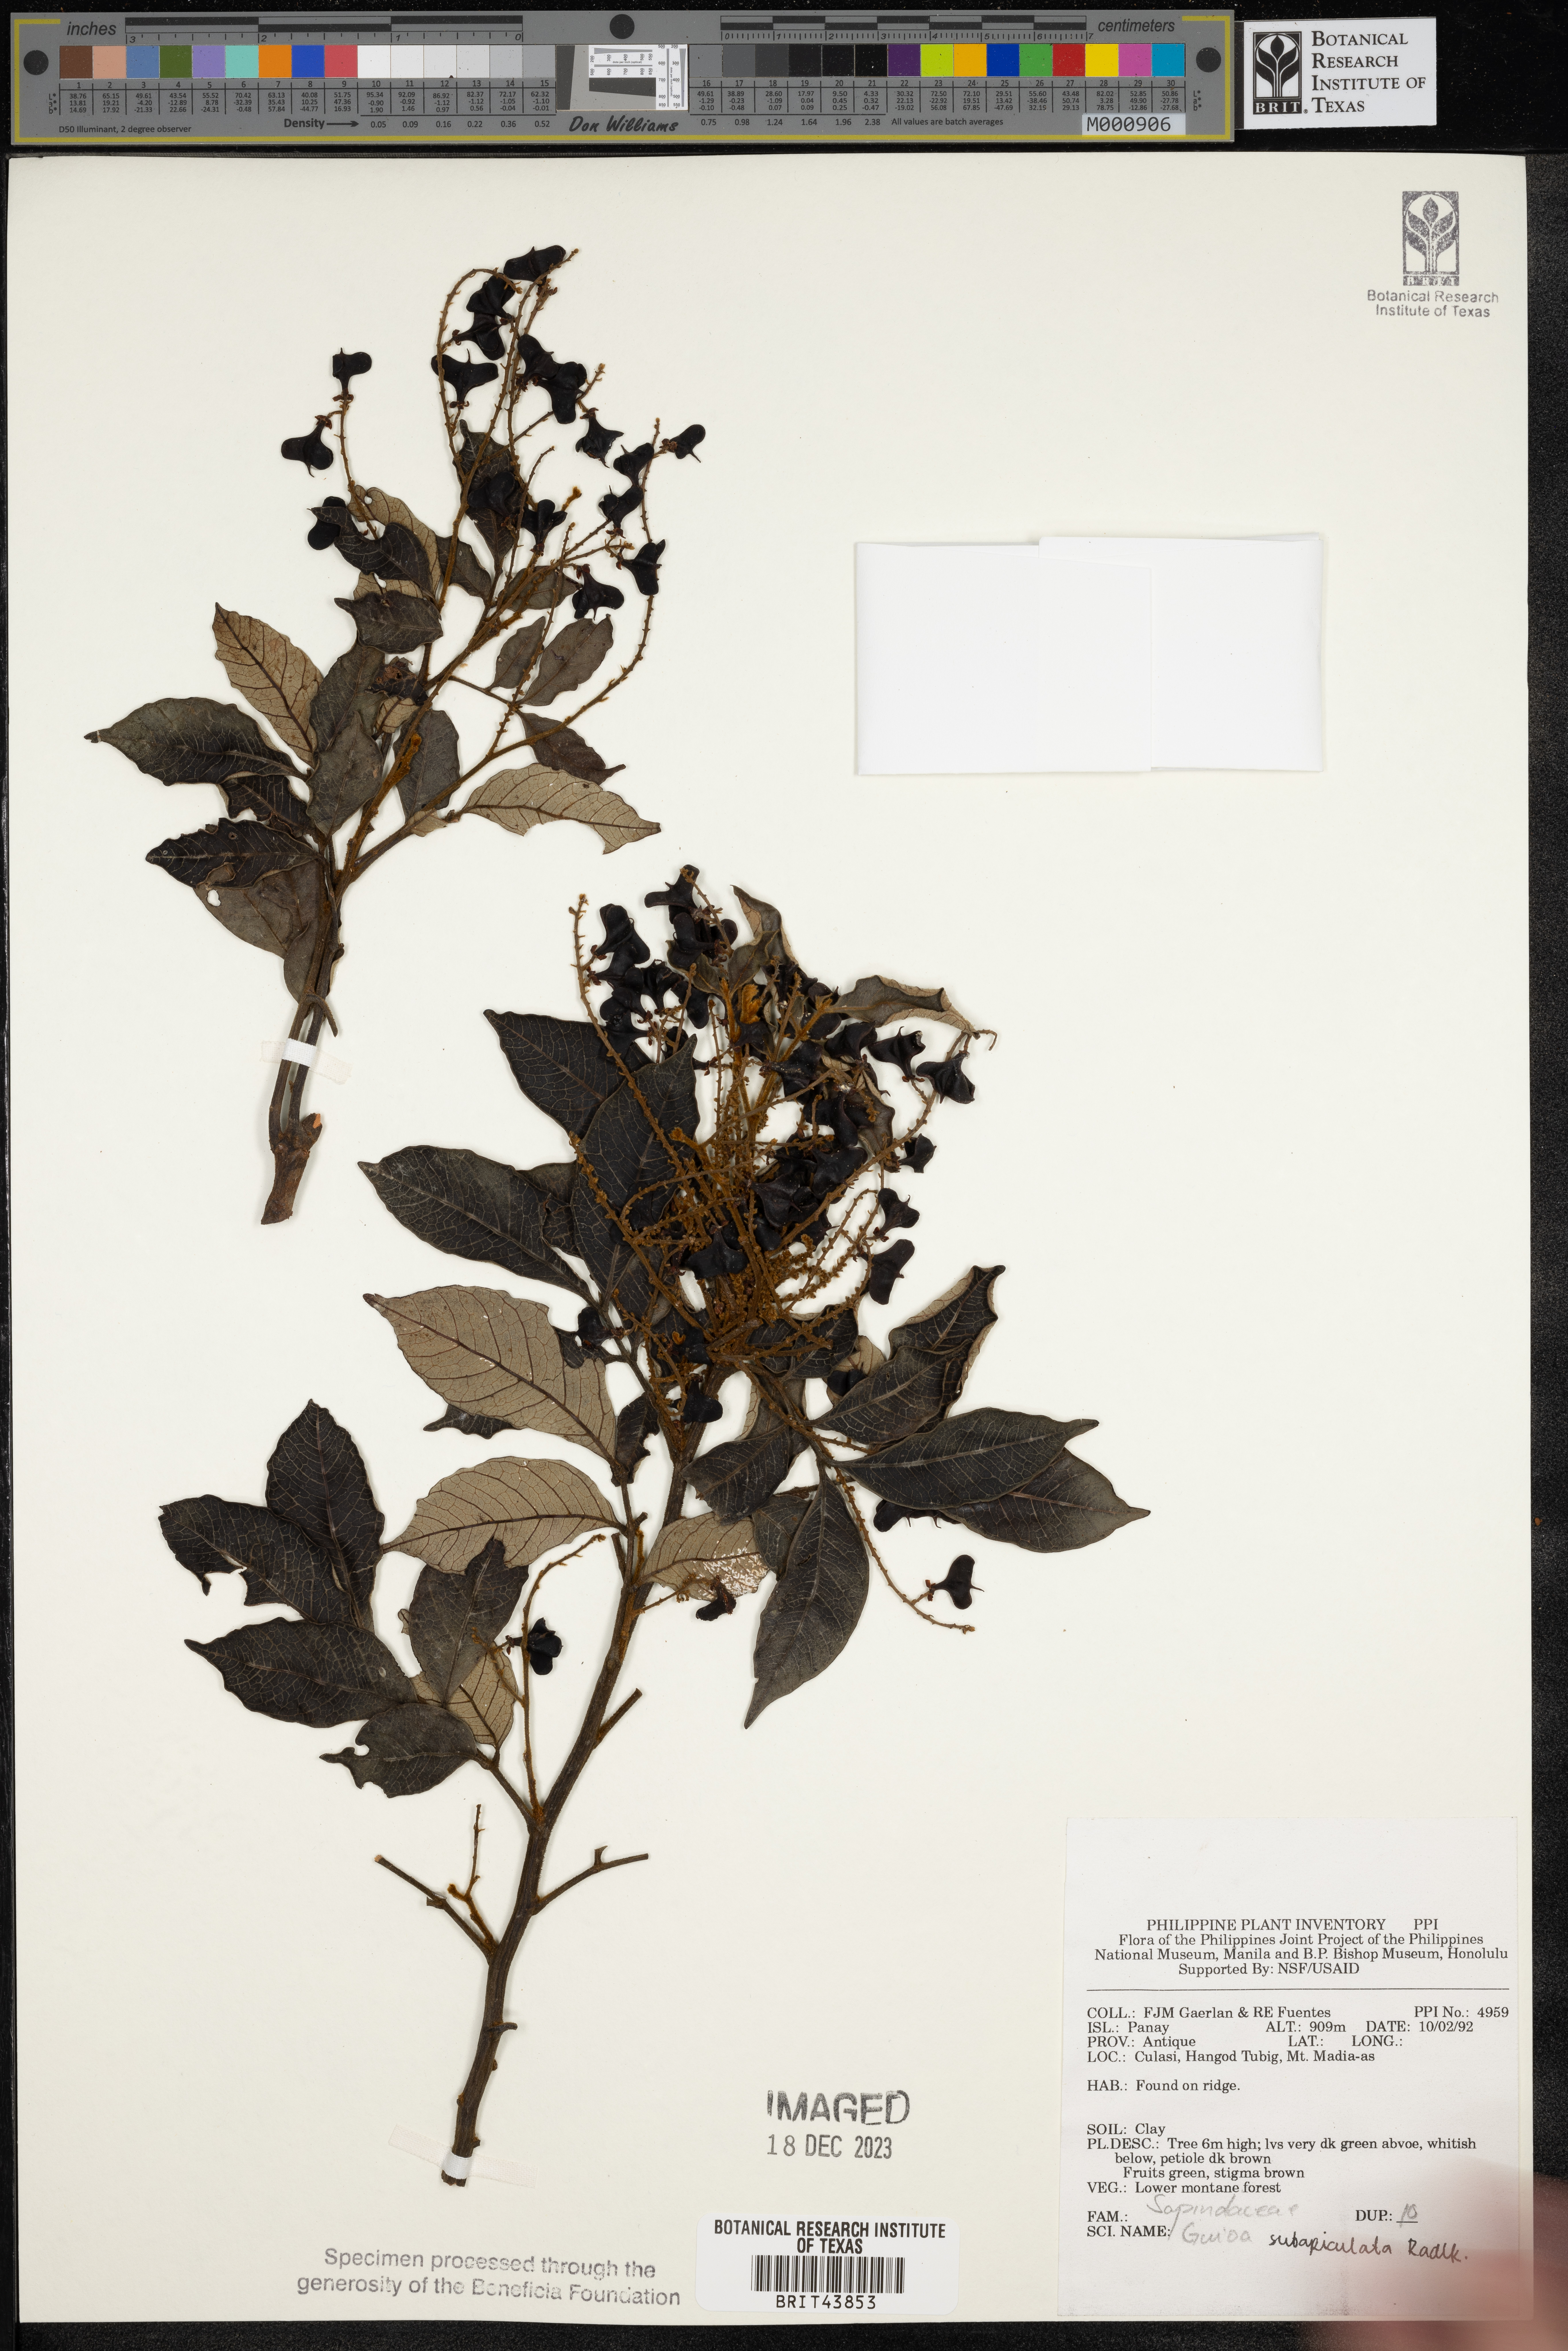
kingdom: Plantae
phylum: Tracheophyta
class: Magnoliopsida
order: Sapindales
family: Sapindaceae
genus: Guioa
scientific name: Guioa pleuropteris
